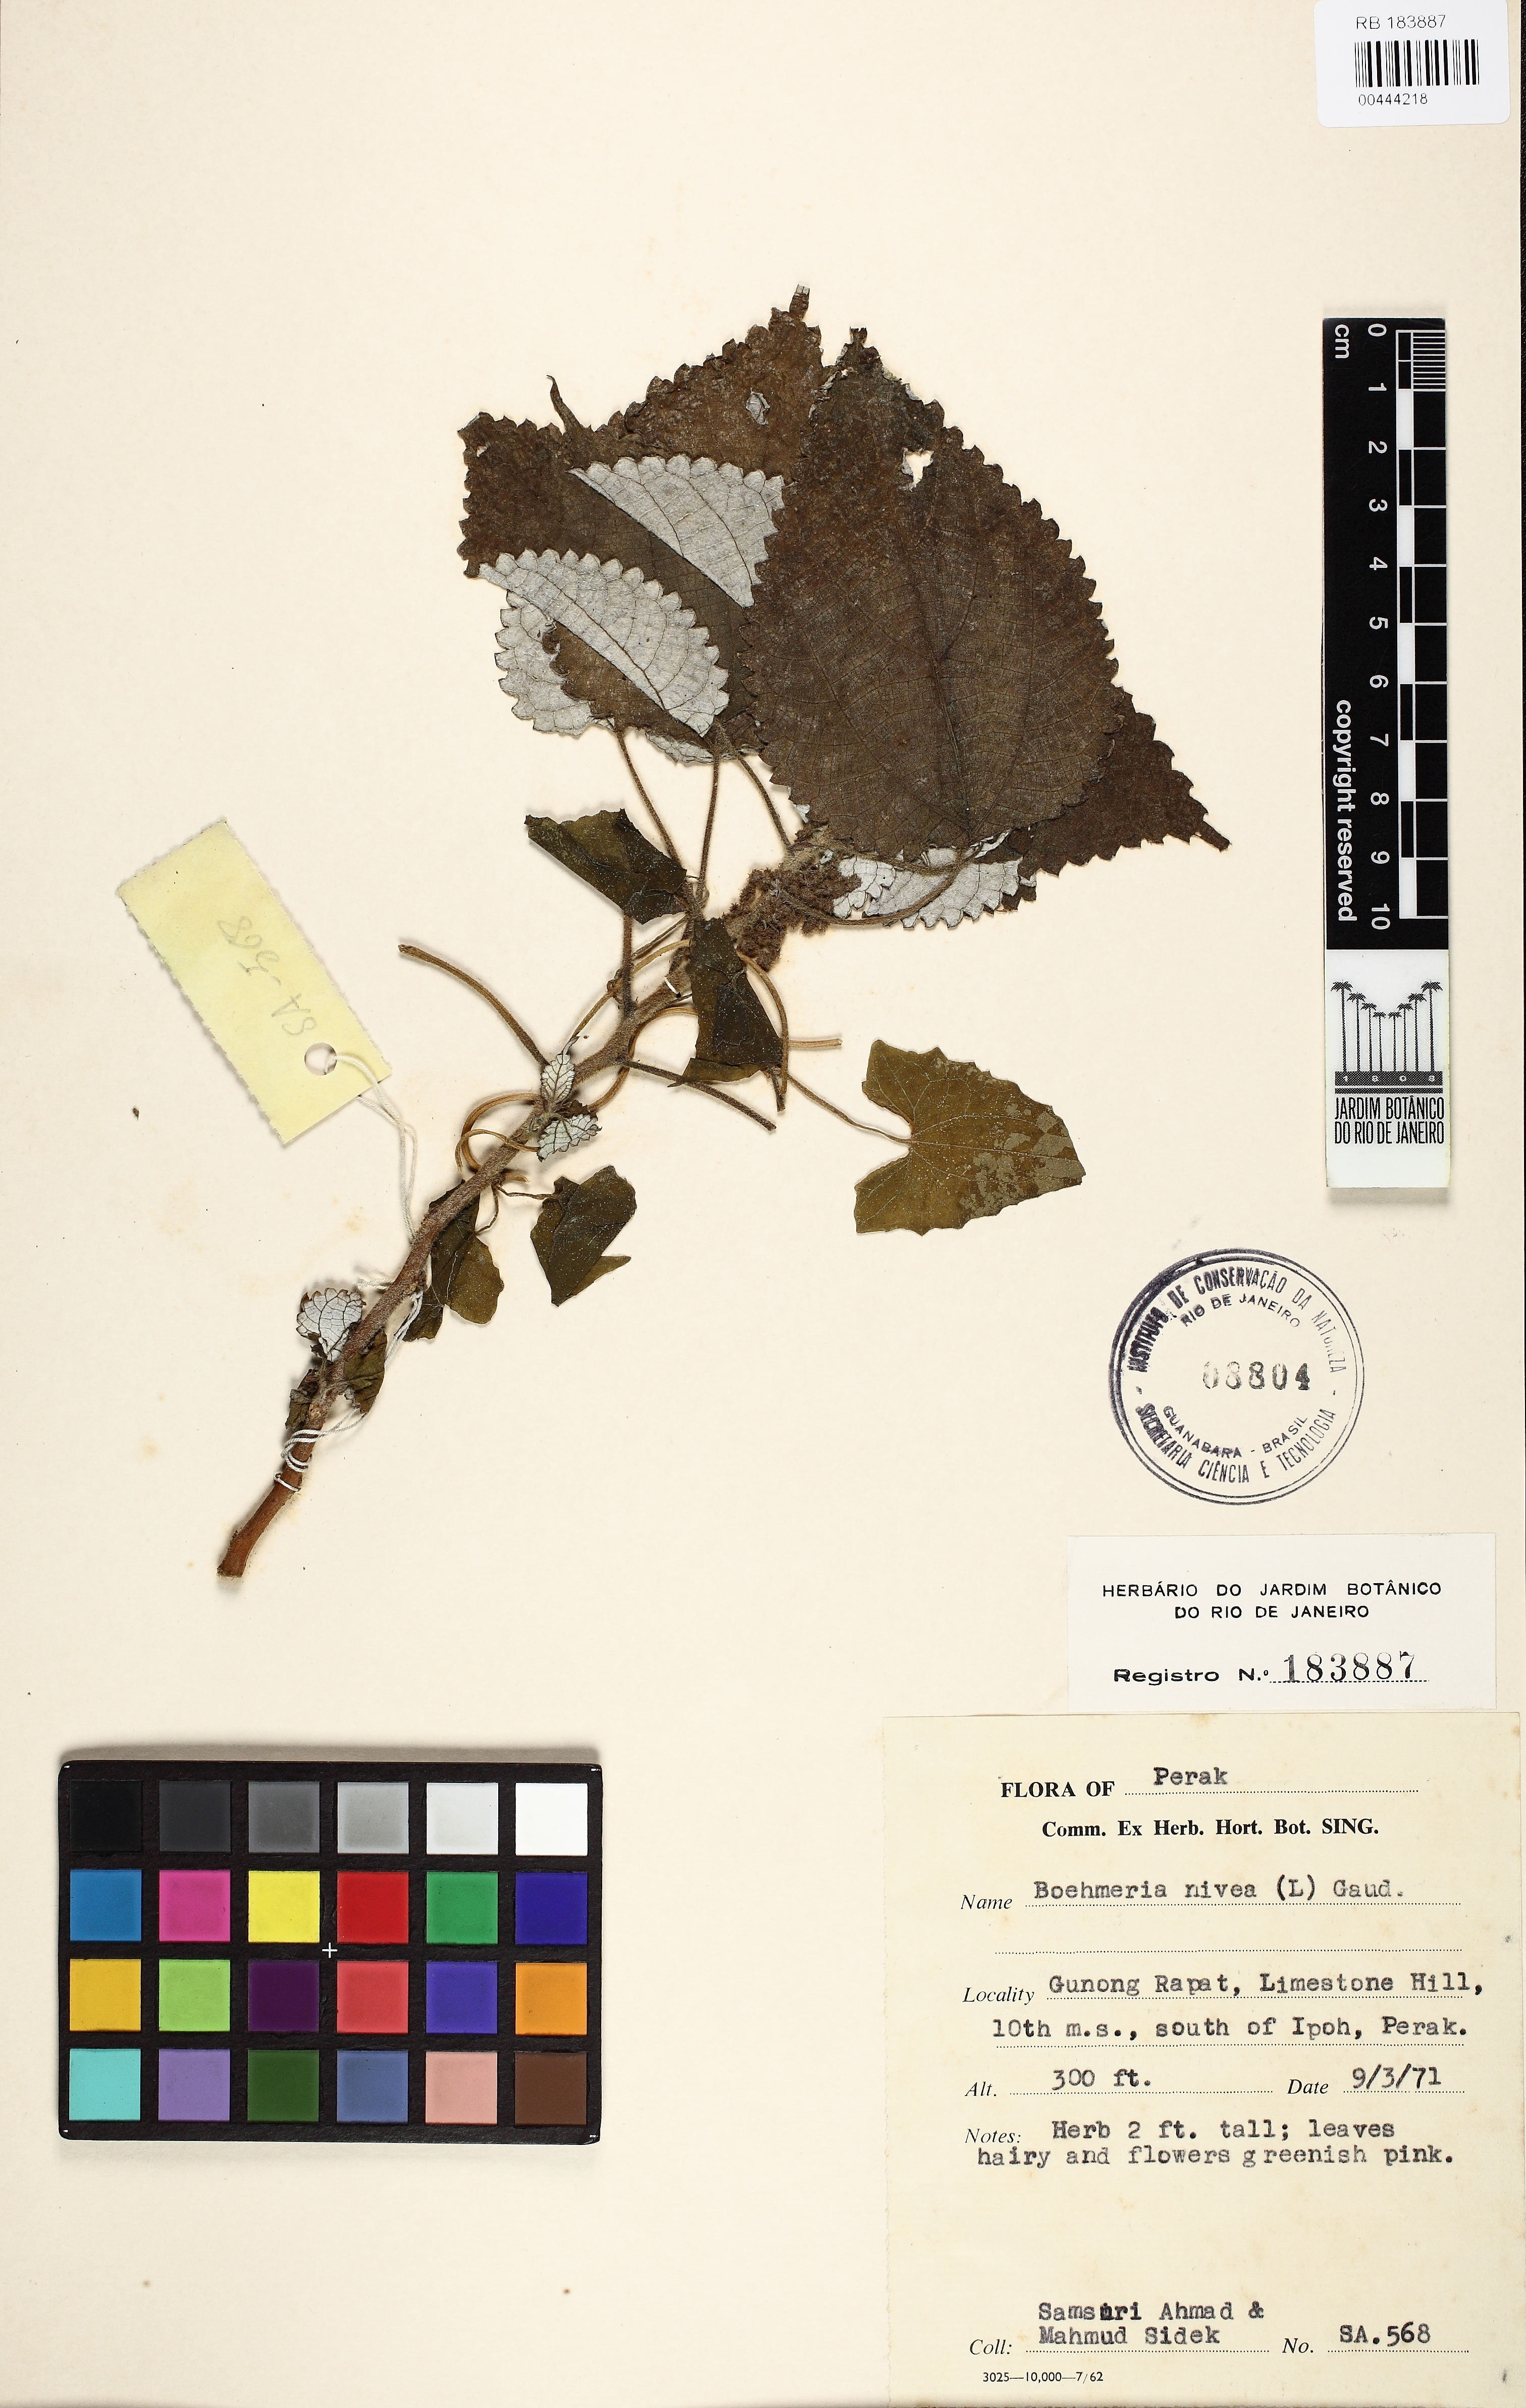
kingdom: Plantae
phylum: Tracheophyta
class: Magnoliopsida
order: Rosales
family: Urticaceae
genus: Boehmeria
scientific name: Boehmeria nivea
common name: Ramie chinese grass
